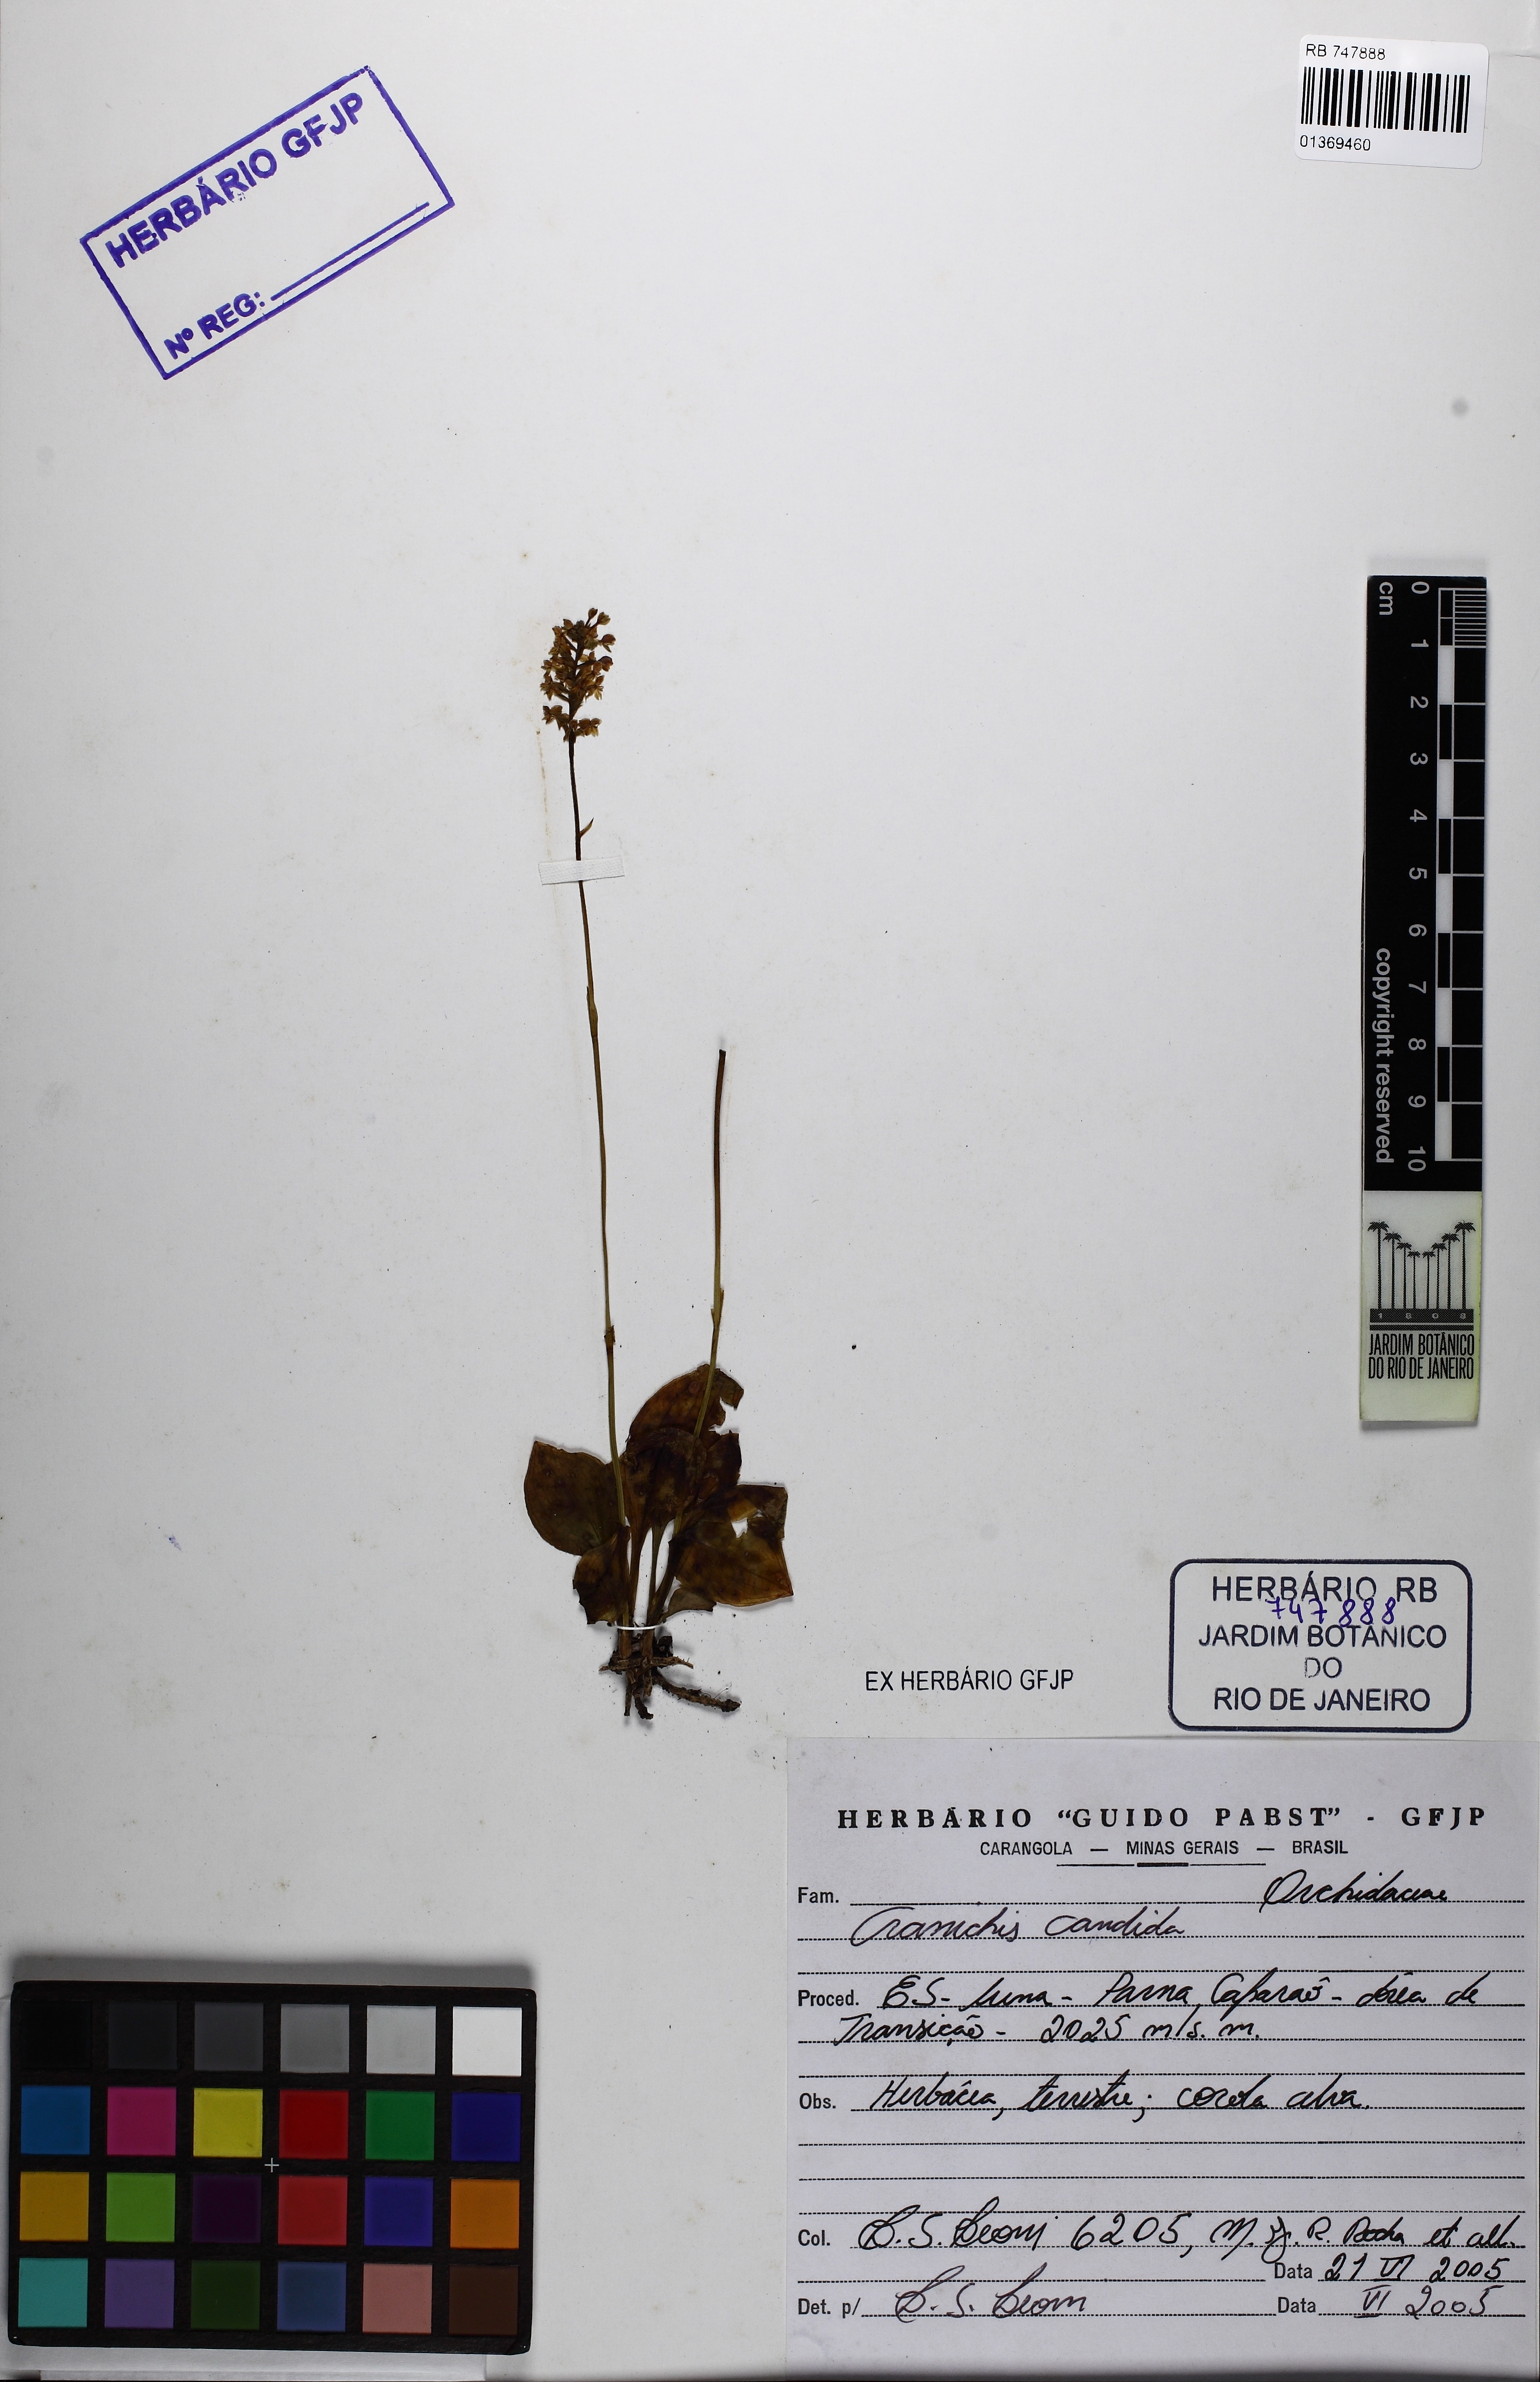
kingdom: Plantae
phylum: Tracheophyta
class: Liliopsida
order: Asparagales
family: Orchidaceae
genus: Cranichis
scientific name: Cranichis candida
